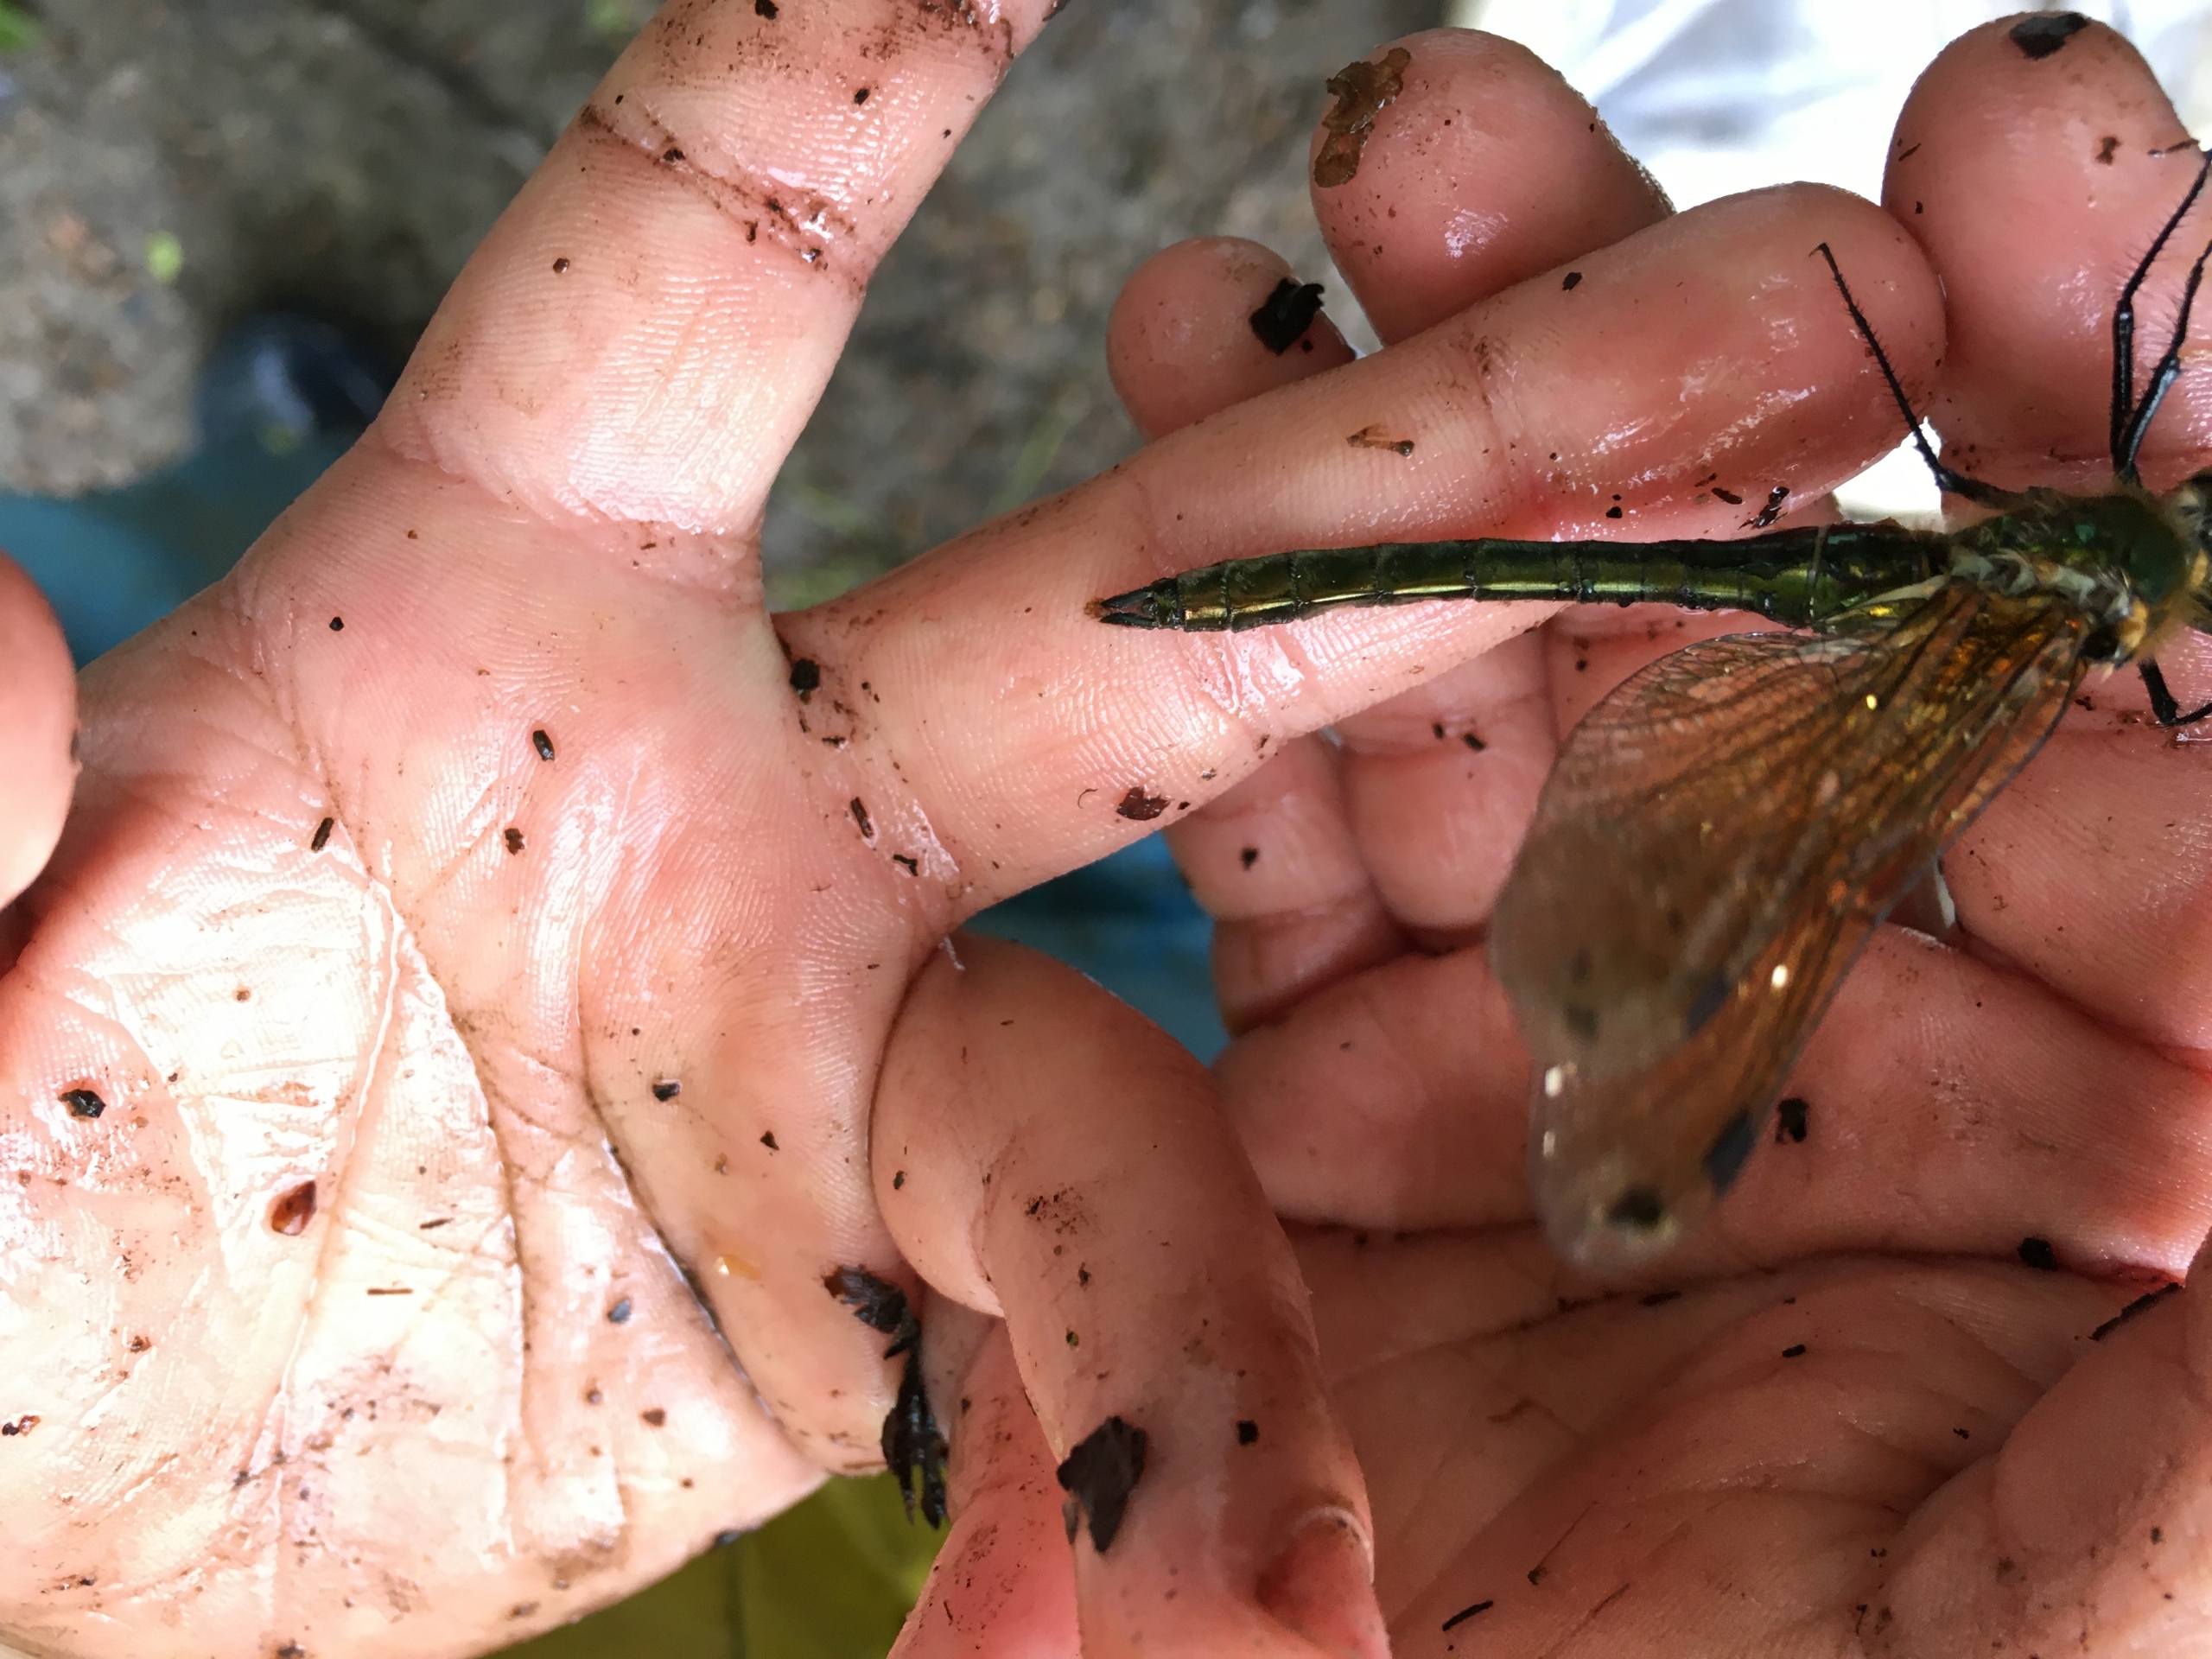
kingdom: Animalia
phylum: Arthropoda
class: Insecta
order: Odonata
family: Corduliidae
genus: Cordulia
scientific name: Cordulia aenea
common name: Grøn smaragdlibel
